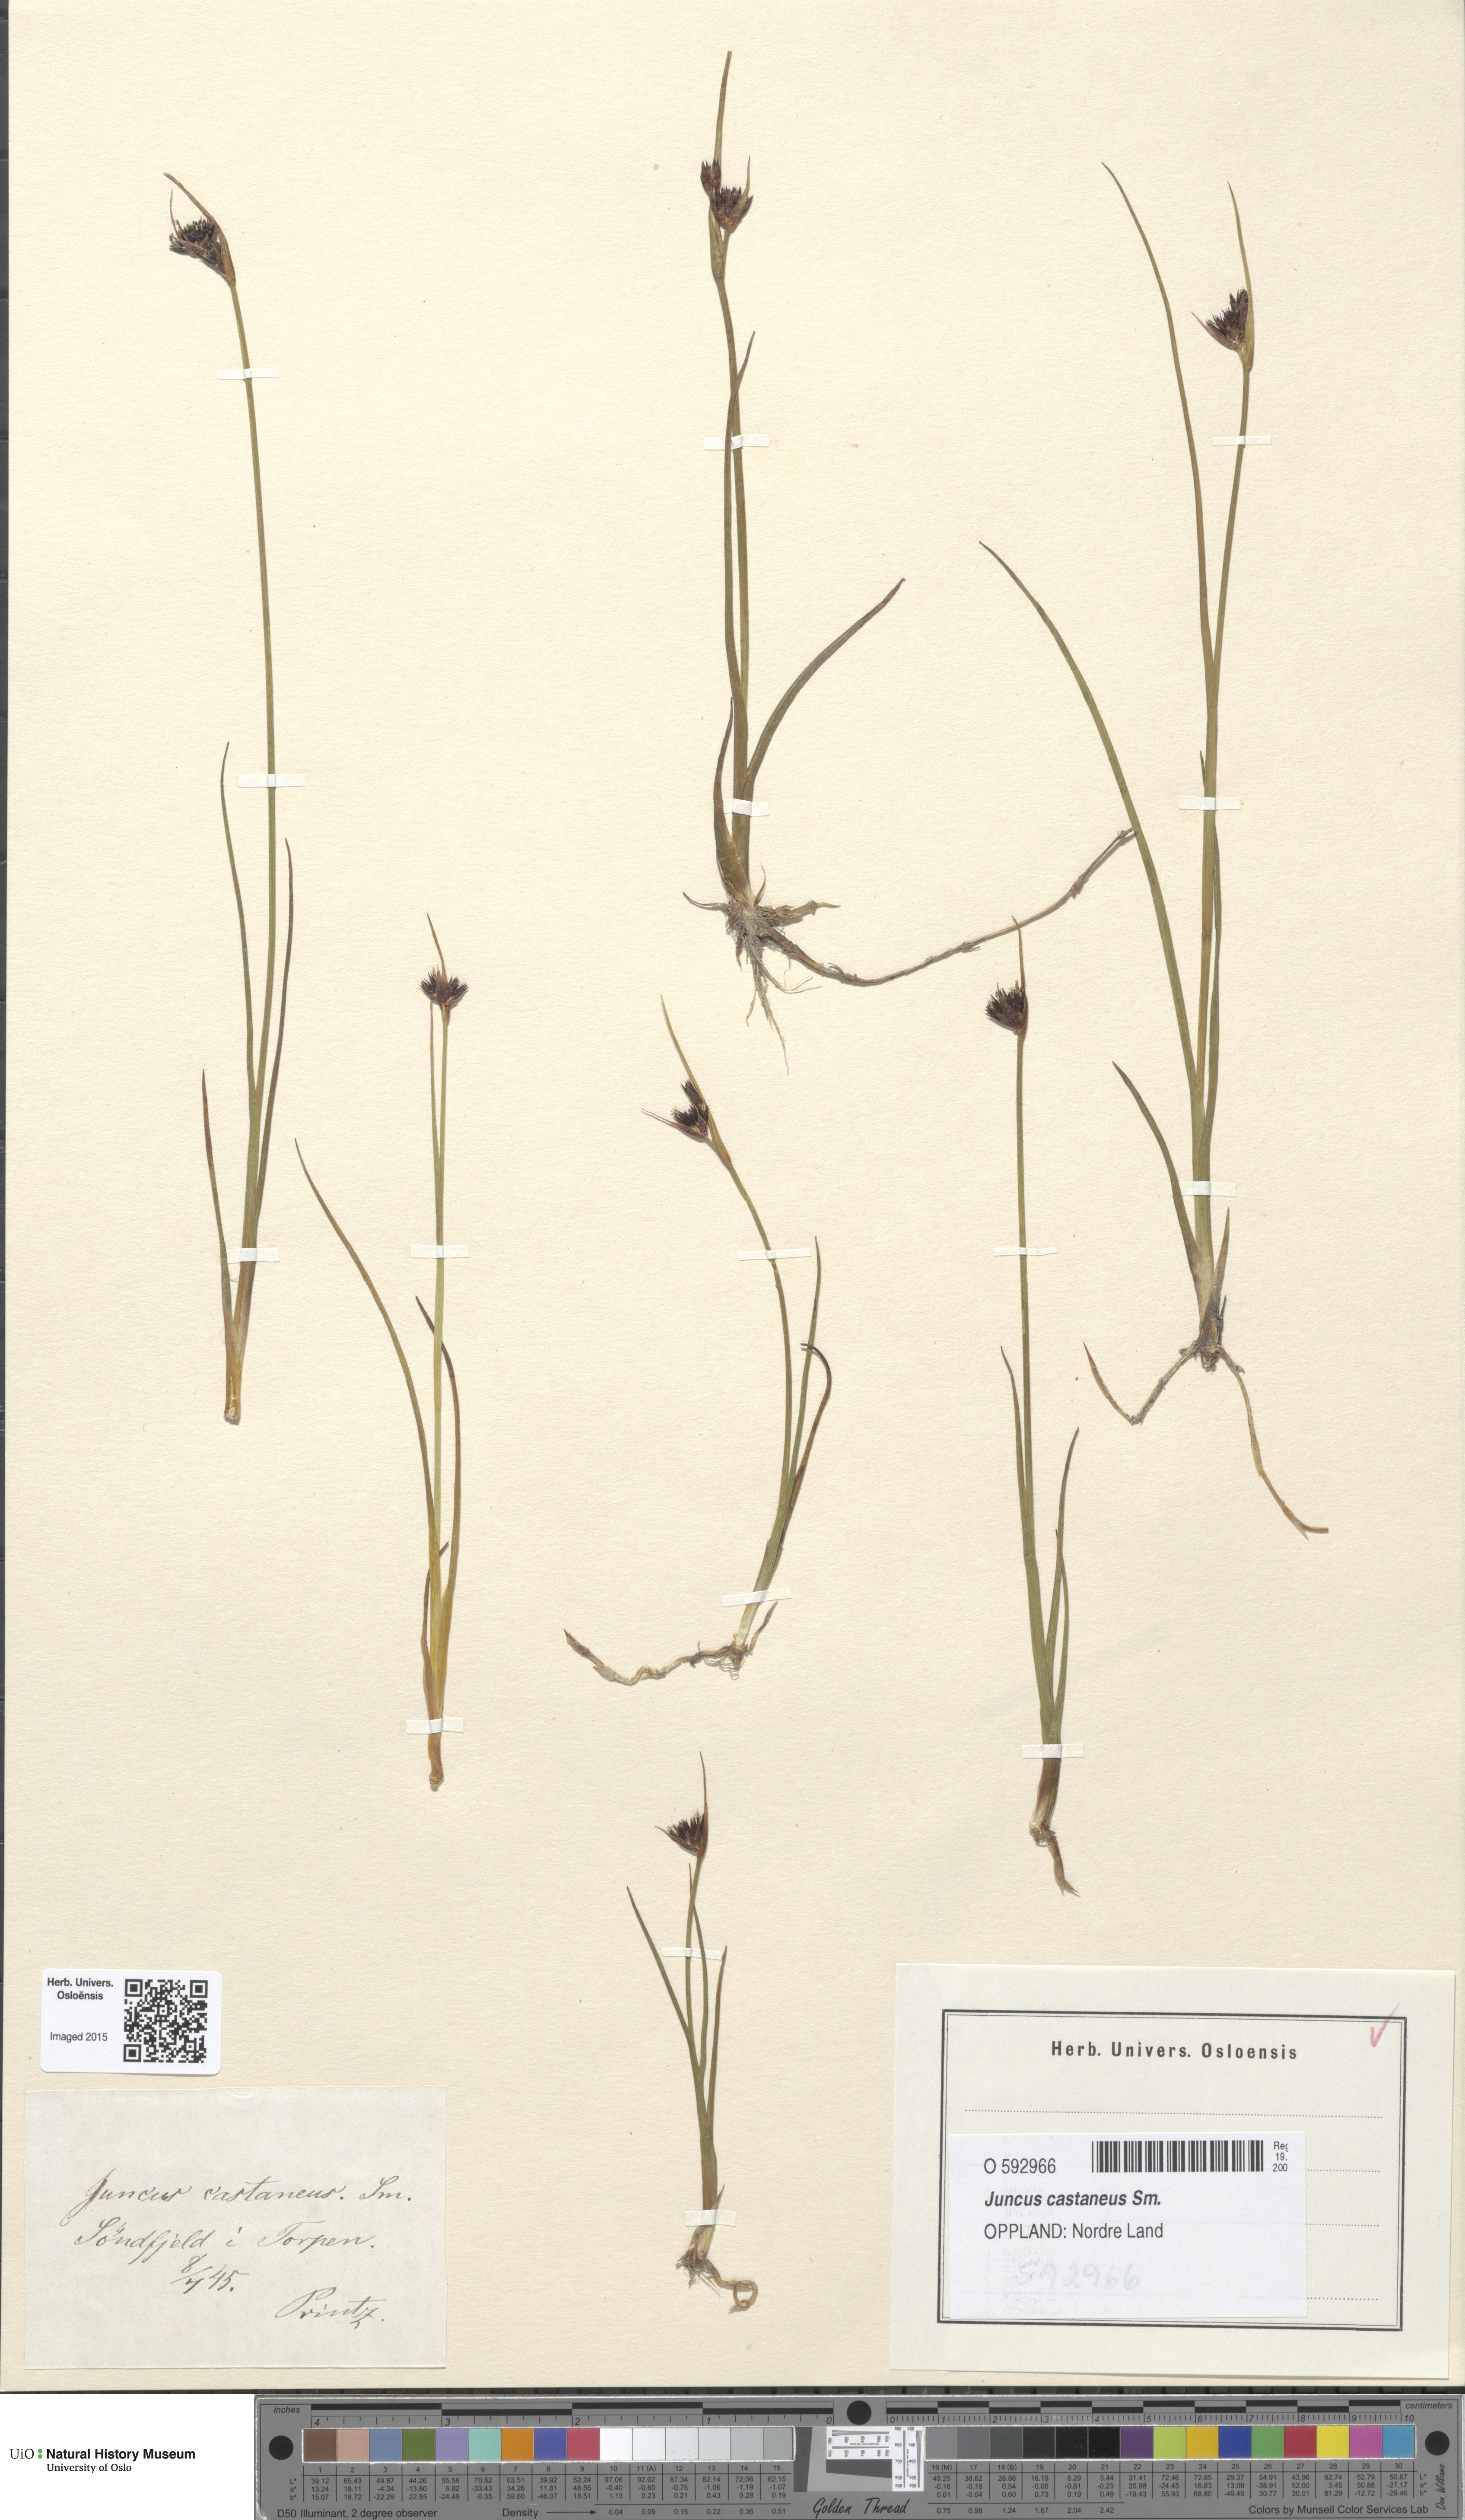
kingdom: Plantae
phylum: Tracheophyta
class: Liliopsida
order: Poales
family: Juncaceae
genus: Juncus
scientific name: Juncus castaneus
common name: Chestnut rush
